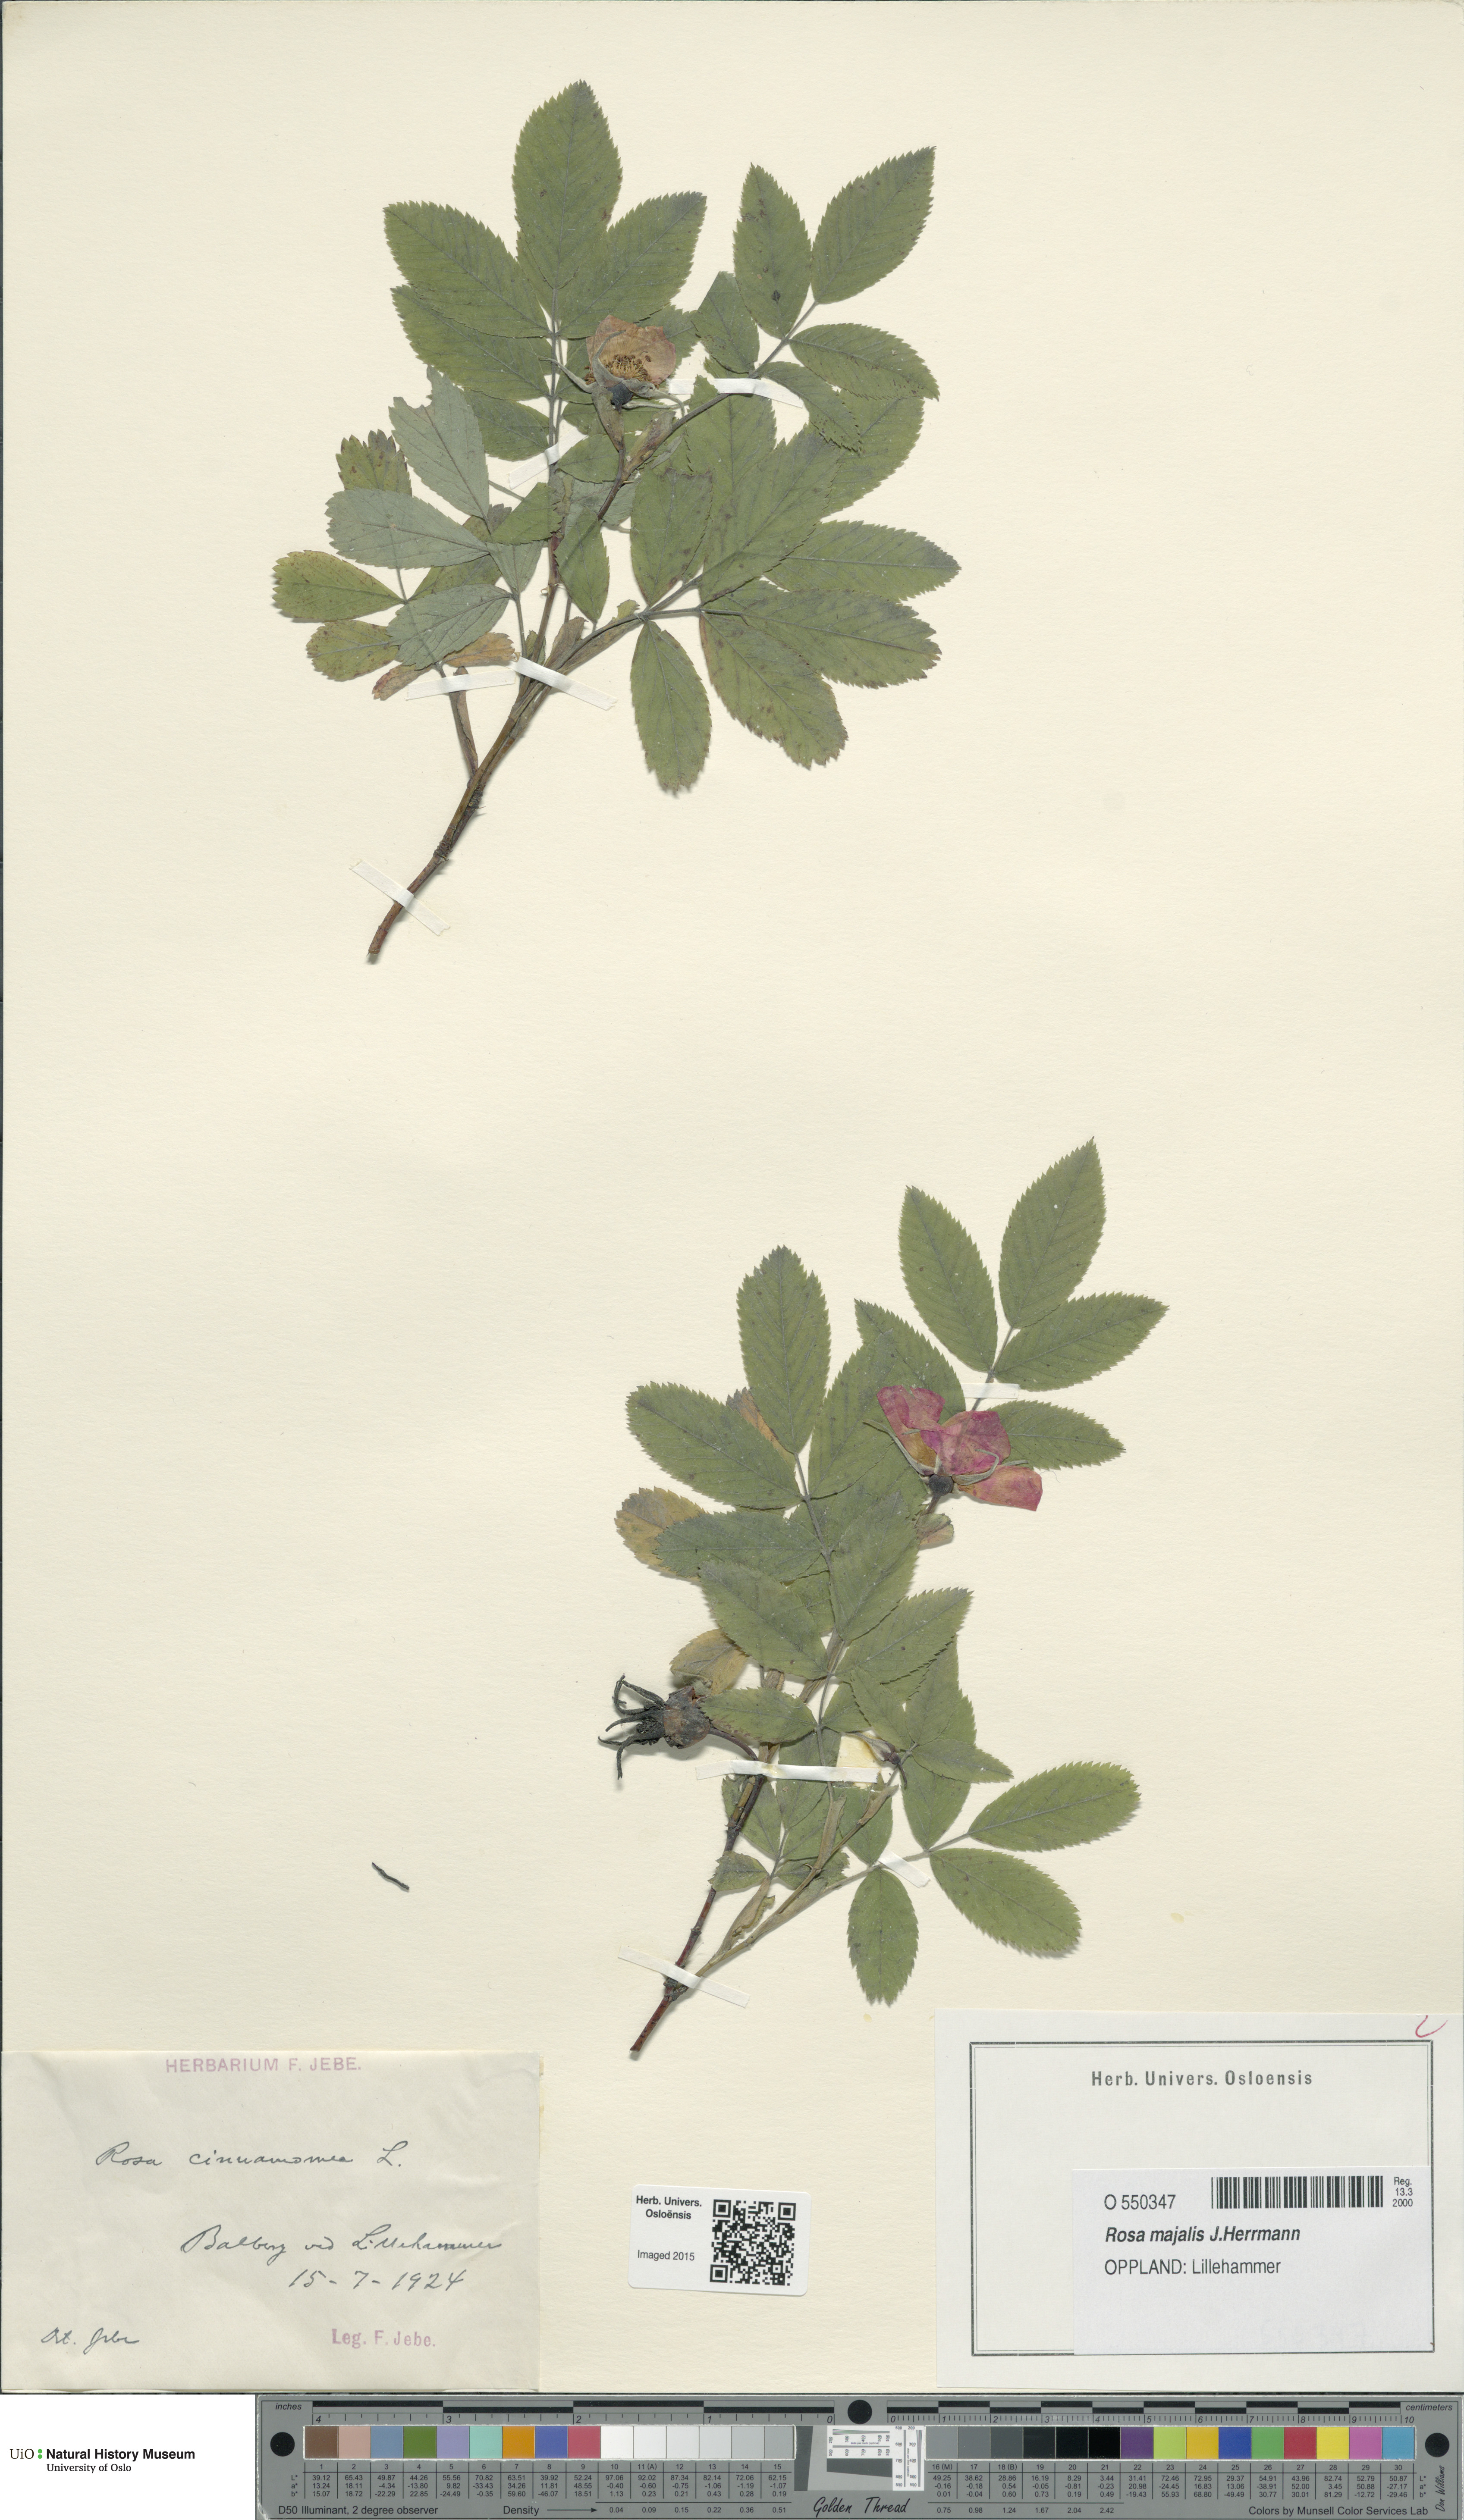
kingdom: Plantae
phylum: Tracheophyta
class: Magnoliopsida
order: Rosales
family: Rosaceae
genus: Rosa
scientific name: Rosa pendulina
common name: Alpine rose
